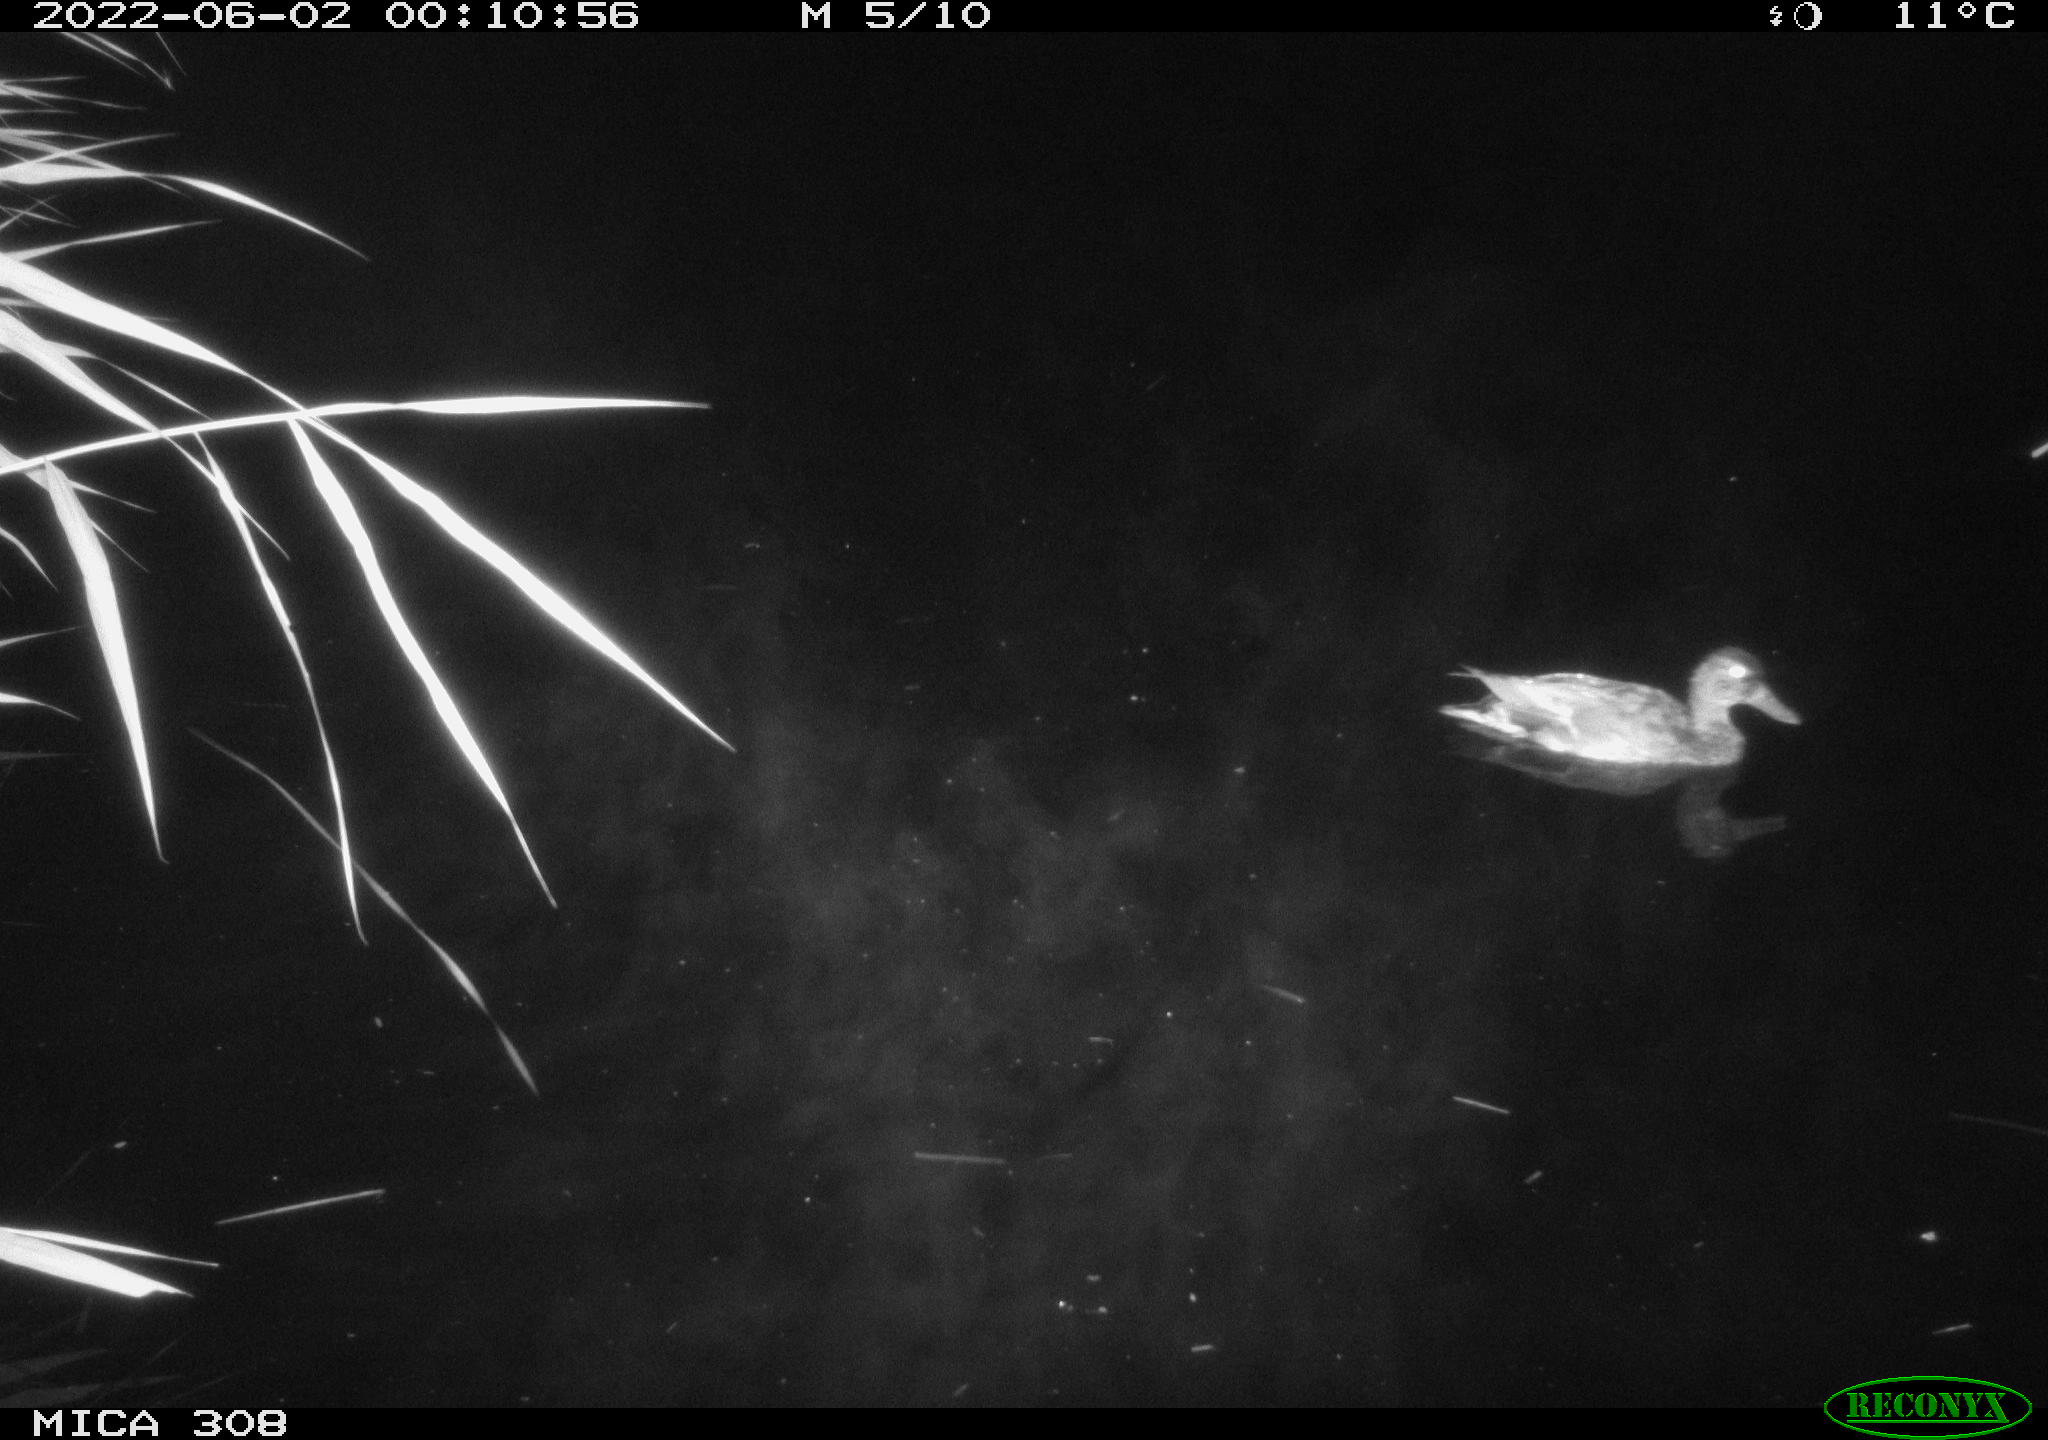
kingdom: Animalia
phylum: Chordata
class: Aves
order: Anseriformes
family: Anatidae
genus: Anas
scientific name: Anas platyrhynchos
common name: Mallard
